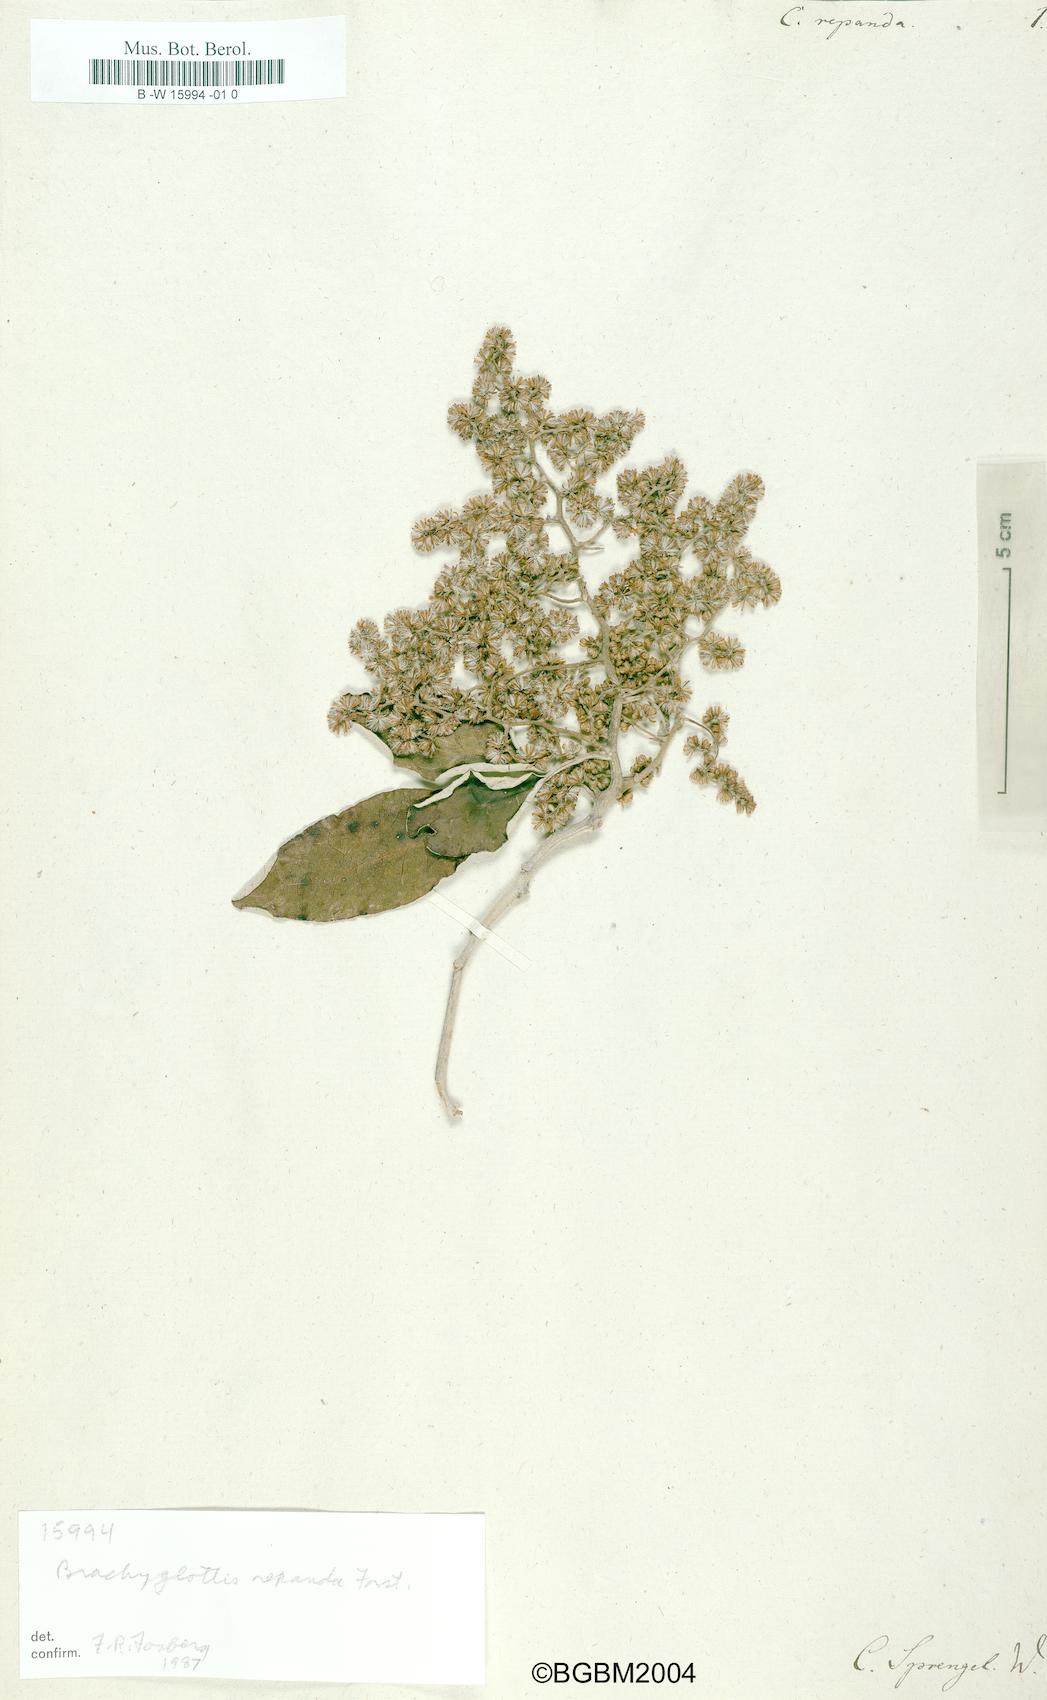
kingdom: Plantae
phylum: Tracheophyta
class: Magnoliopsida
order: Asterales
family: Asteraceae
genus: Brachyglottis
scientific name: Brachyglottis repanda
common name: Hedge ragwort
